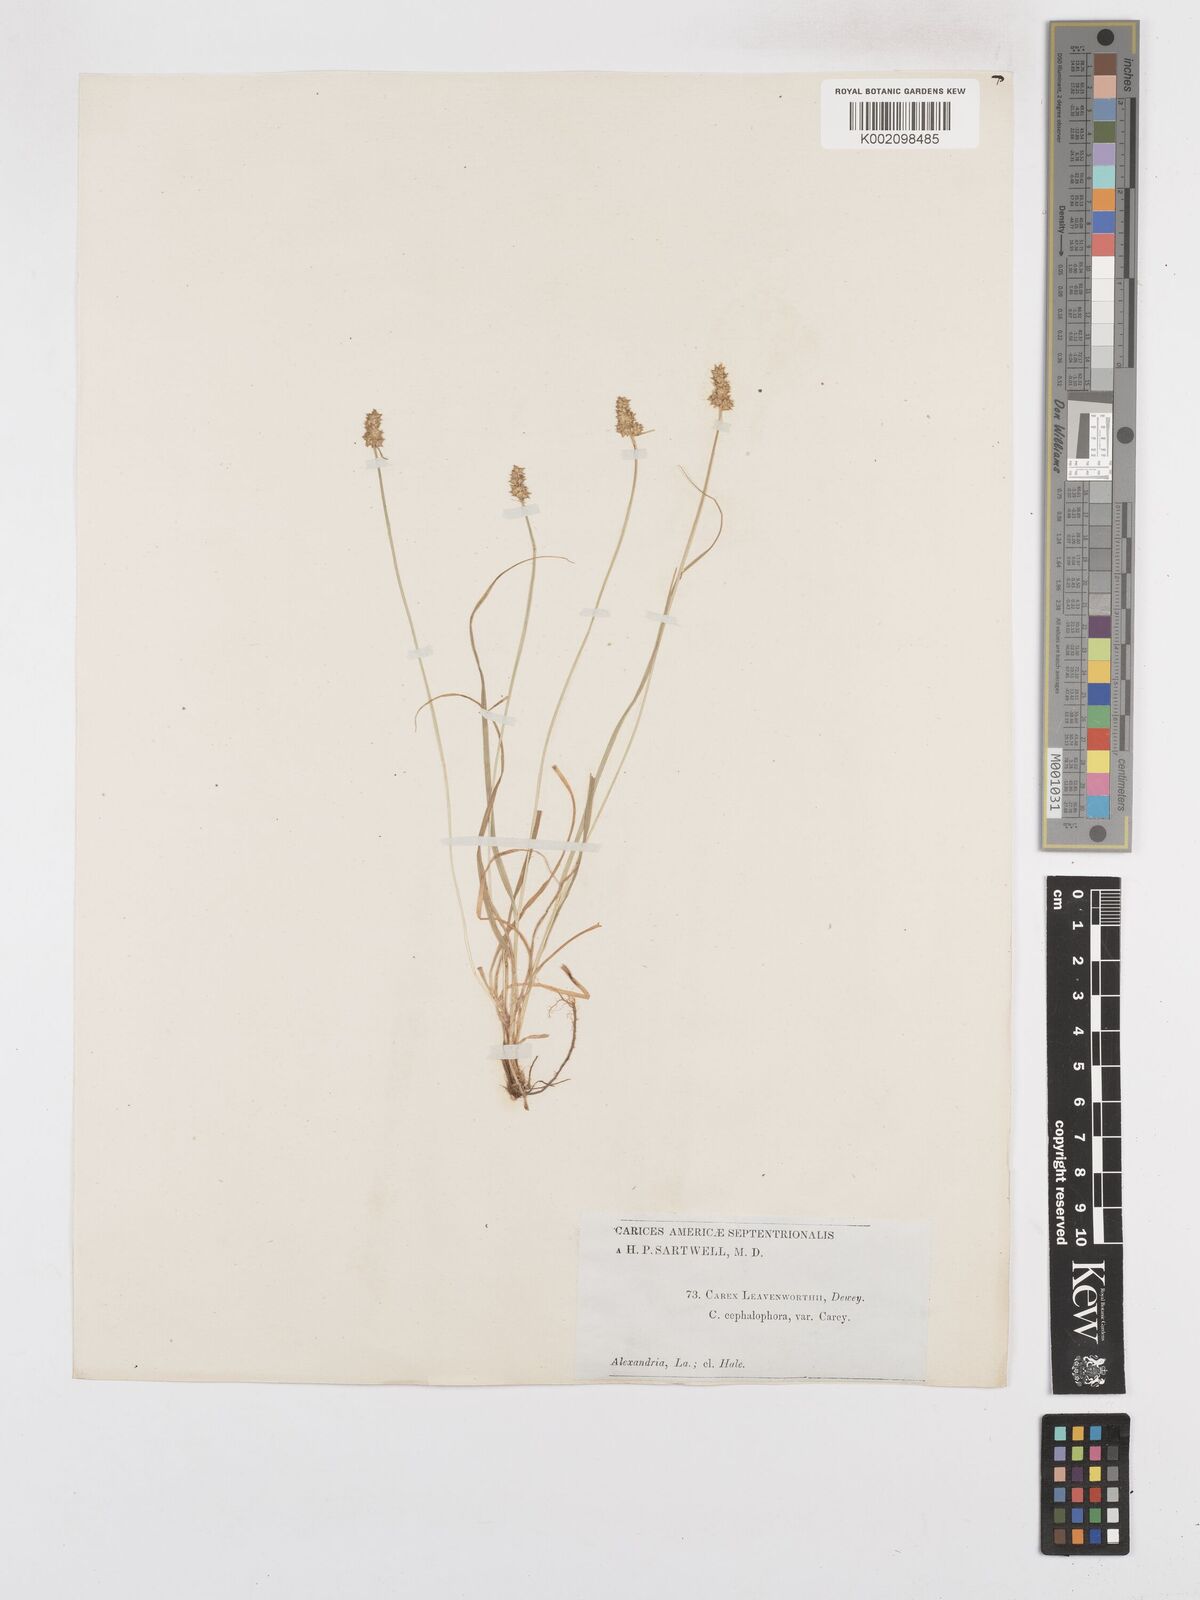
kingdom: Plantae
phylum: Tracheophyta
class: Liliopsida
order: Poales
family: Cyperaceae
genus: Carex
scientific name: Carex cephalophora
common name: Oval-headed sedge
